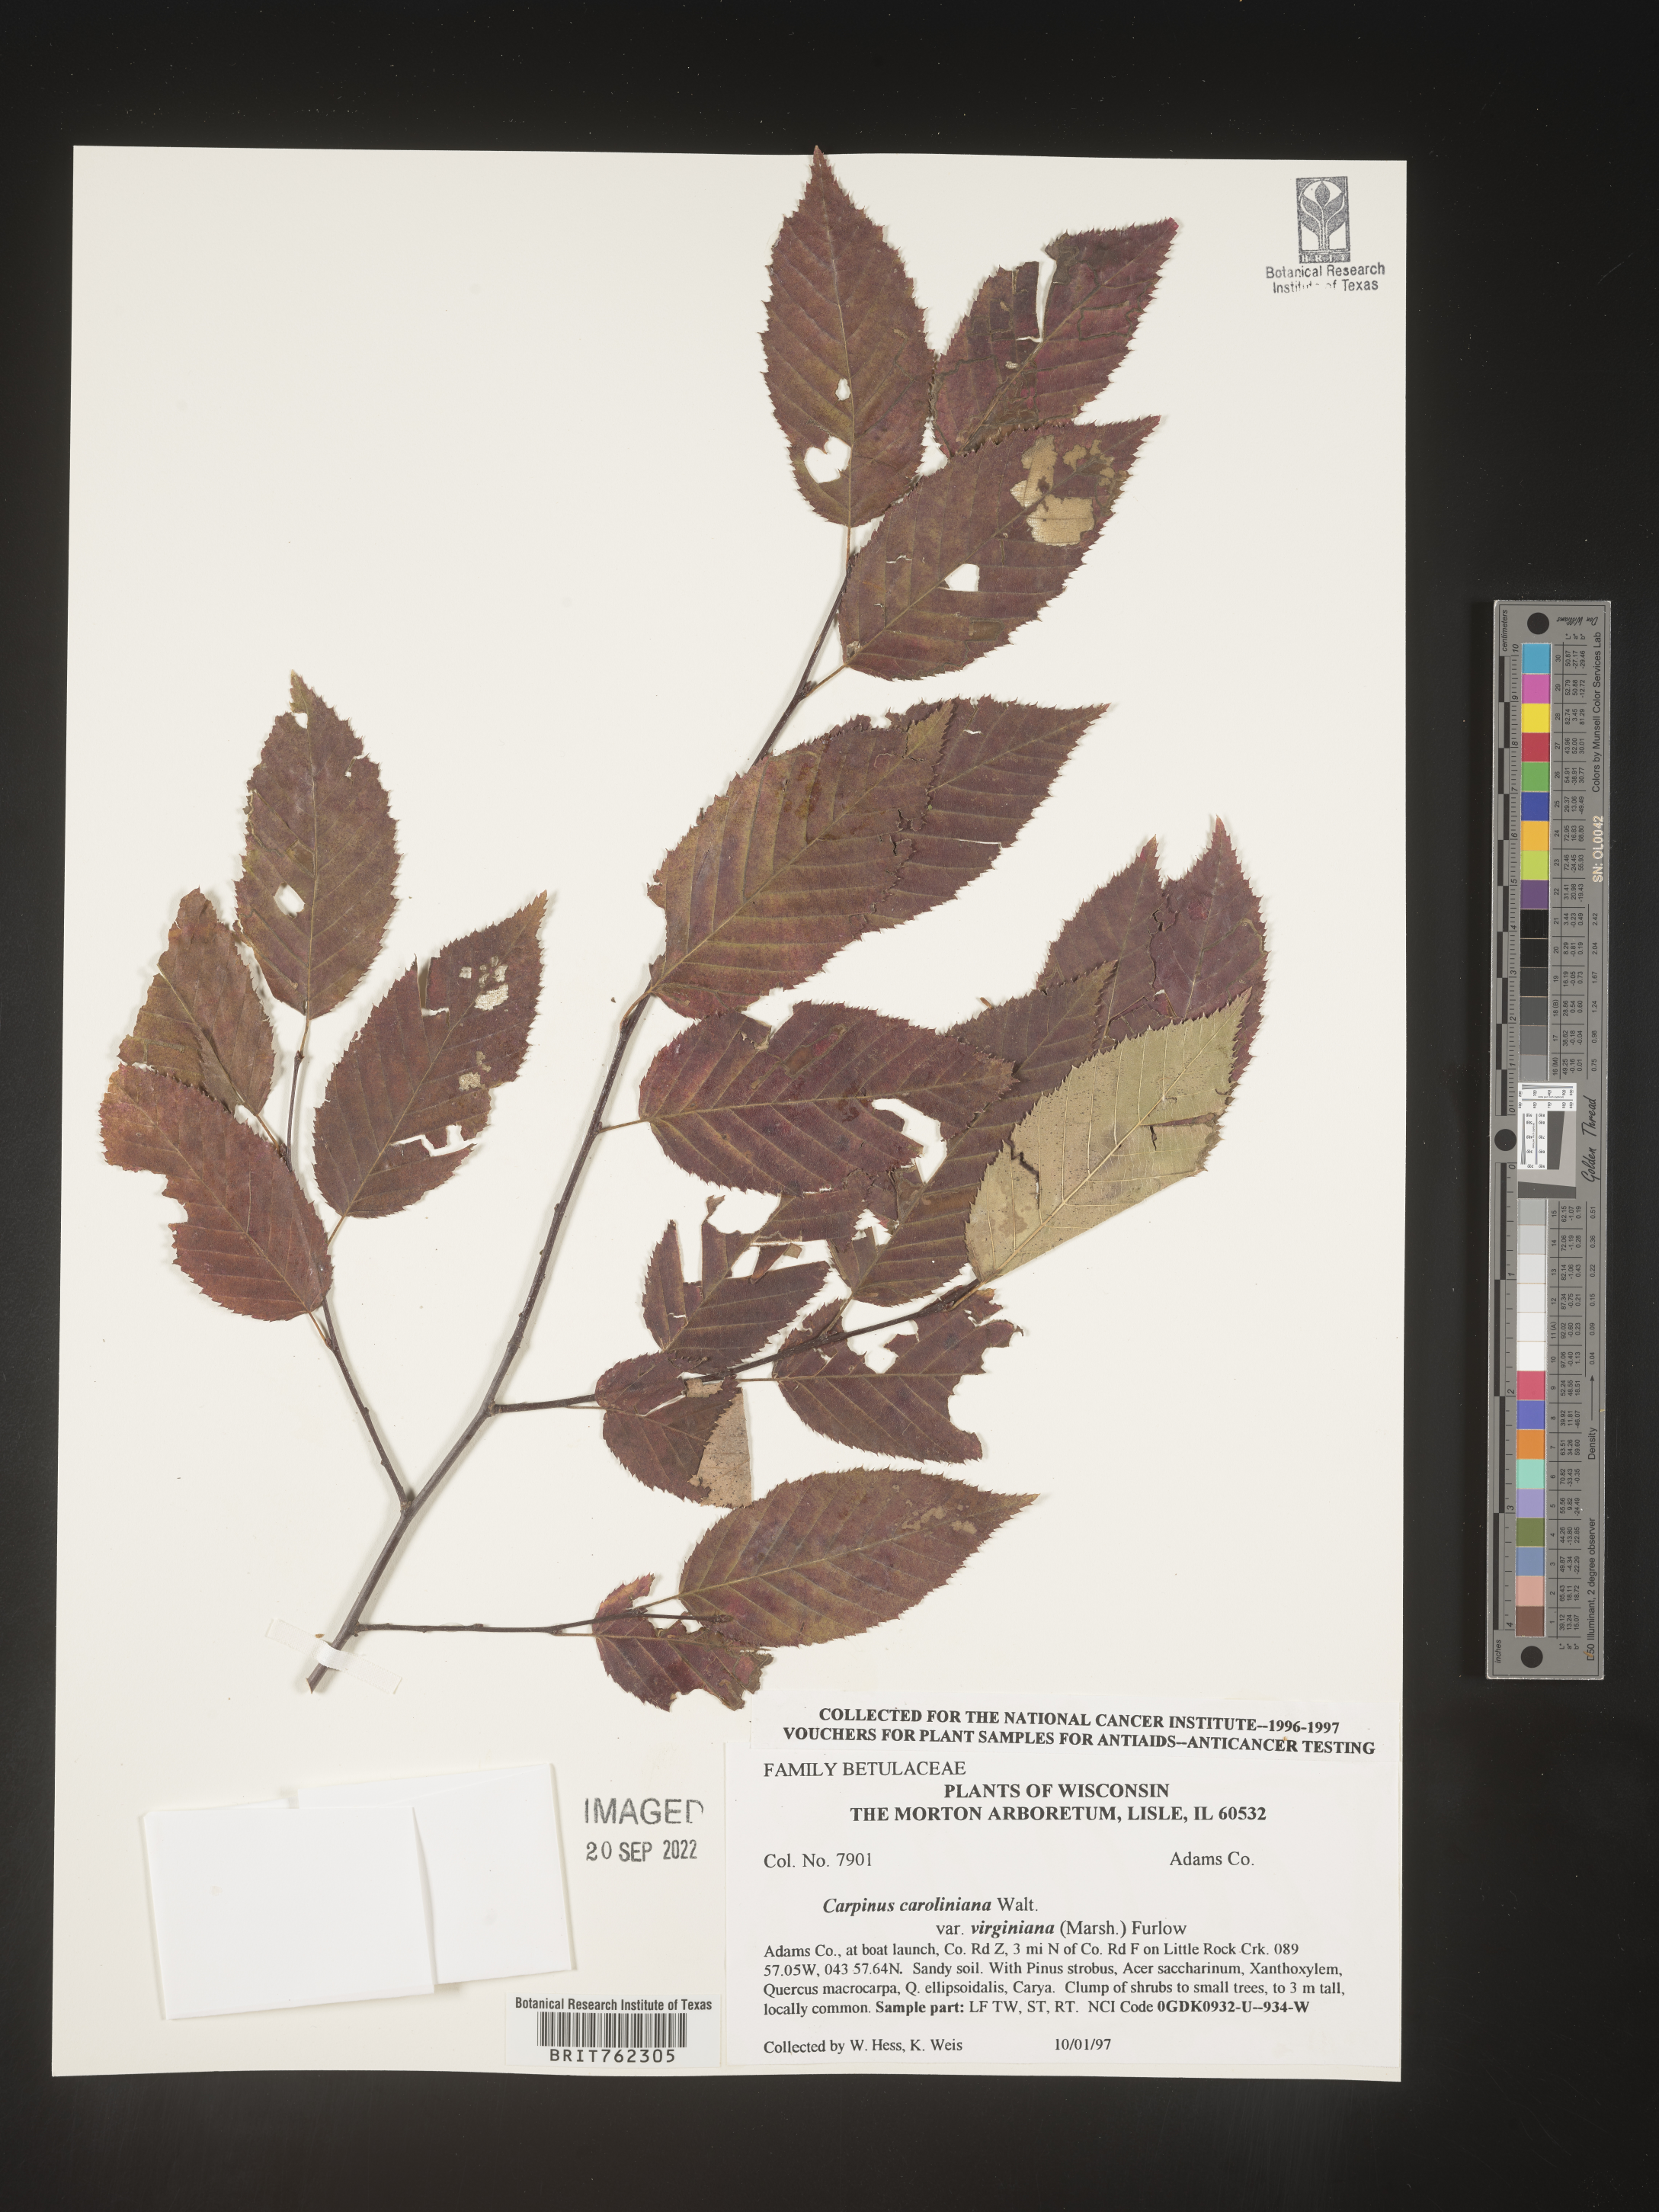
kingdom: Plantae
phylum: Tracheophyta
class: Magnoliopsida
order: Fagales
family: Betulaceae
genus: Carpinus
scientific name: Carpinus caroliniana
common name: American hornbeam
